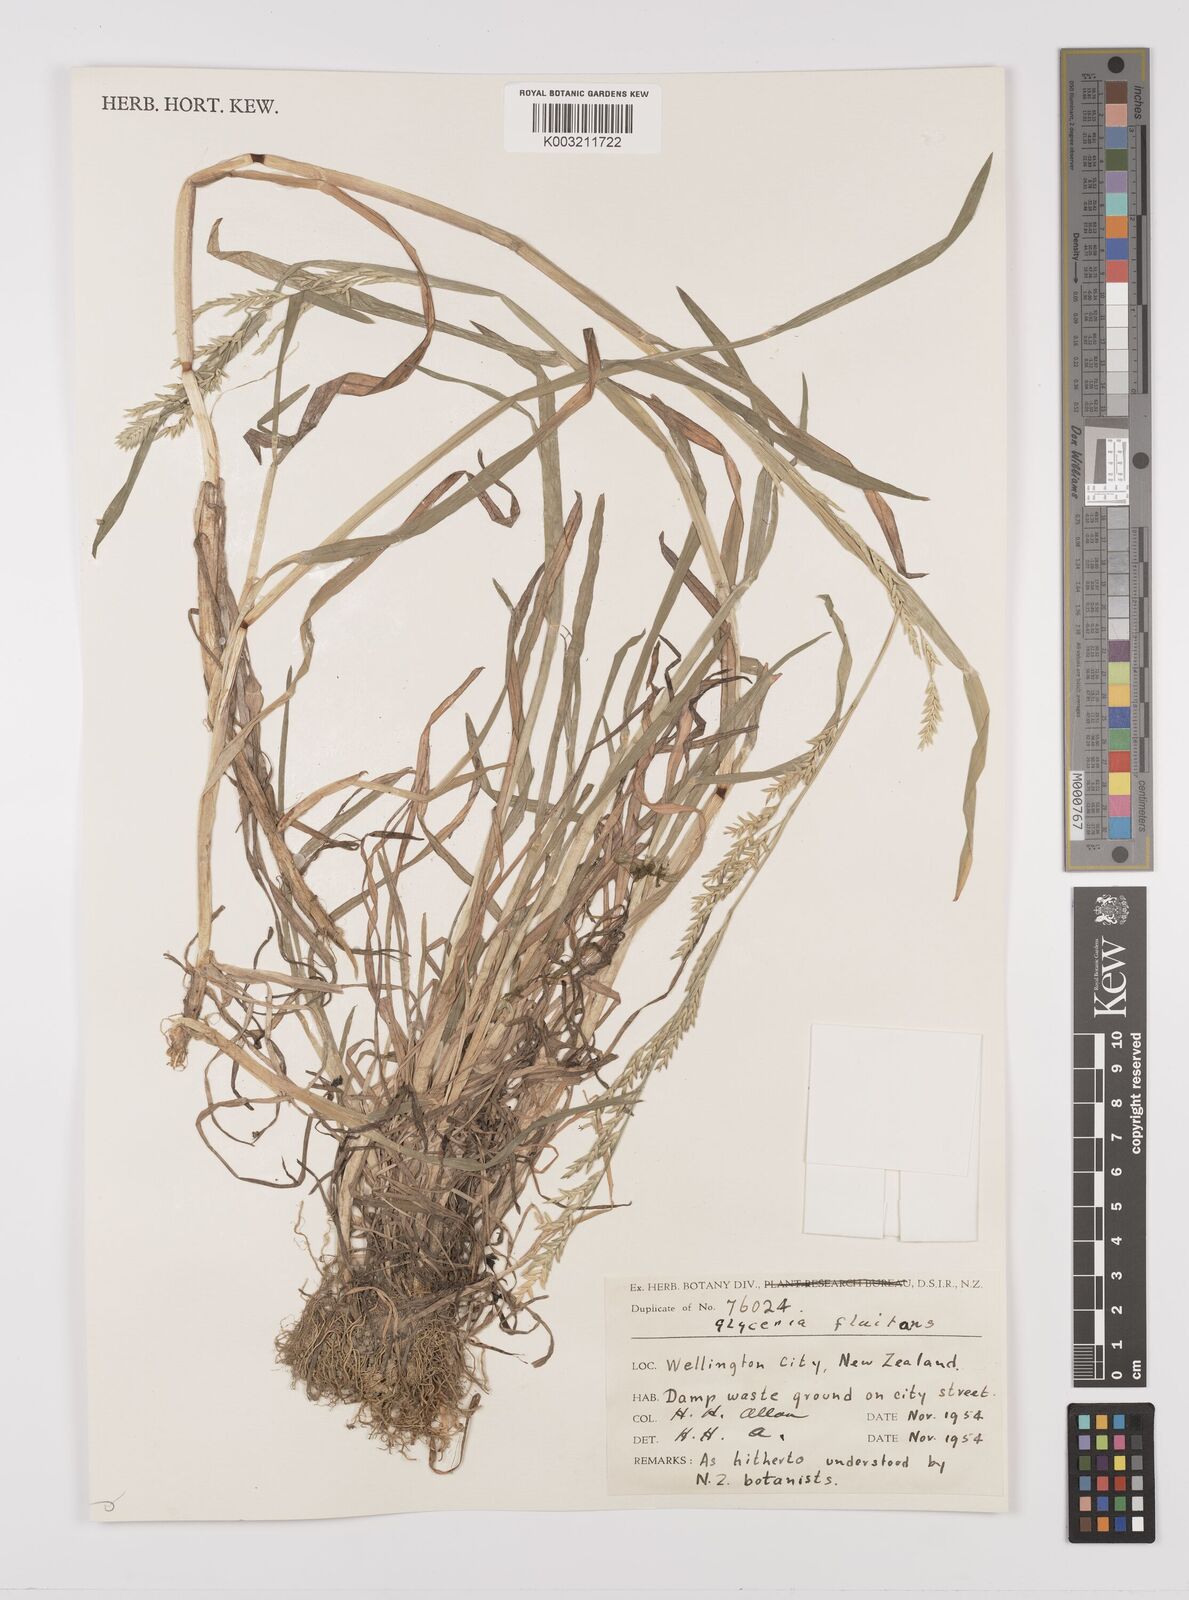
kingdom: Plantae
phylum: Tracheophyta
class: Liliopsida
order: Poales
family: Poaceae
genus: Glyceria
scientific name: Glyceria fluitans
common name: Floating sweet-grass
